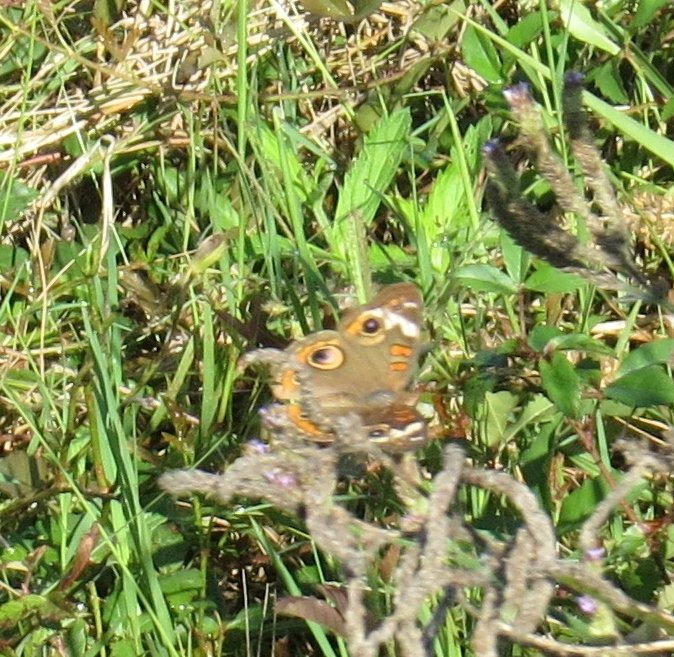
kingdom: Animalia
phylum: Arthropoda
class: Insecta
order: Lepidoptera
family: Nymphalidae
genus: Junonia
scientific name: Junonia coenia
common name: Common Buckeye
